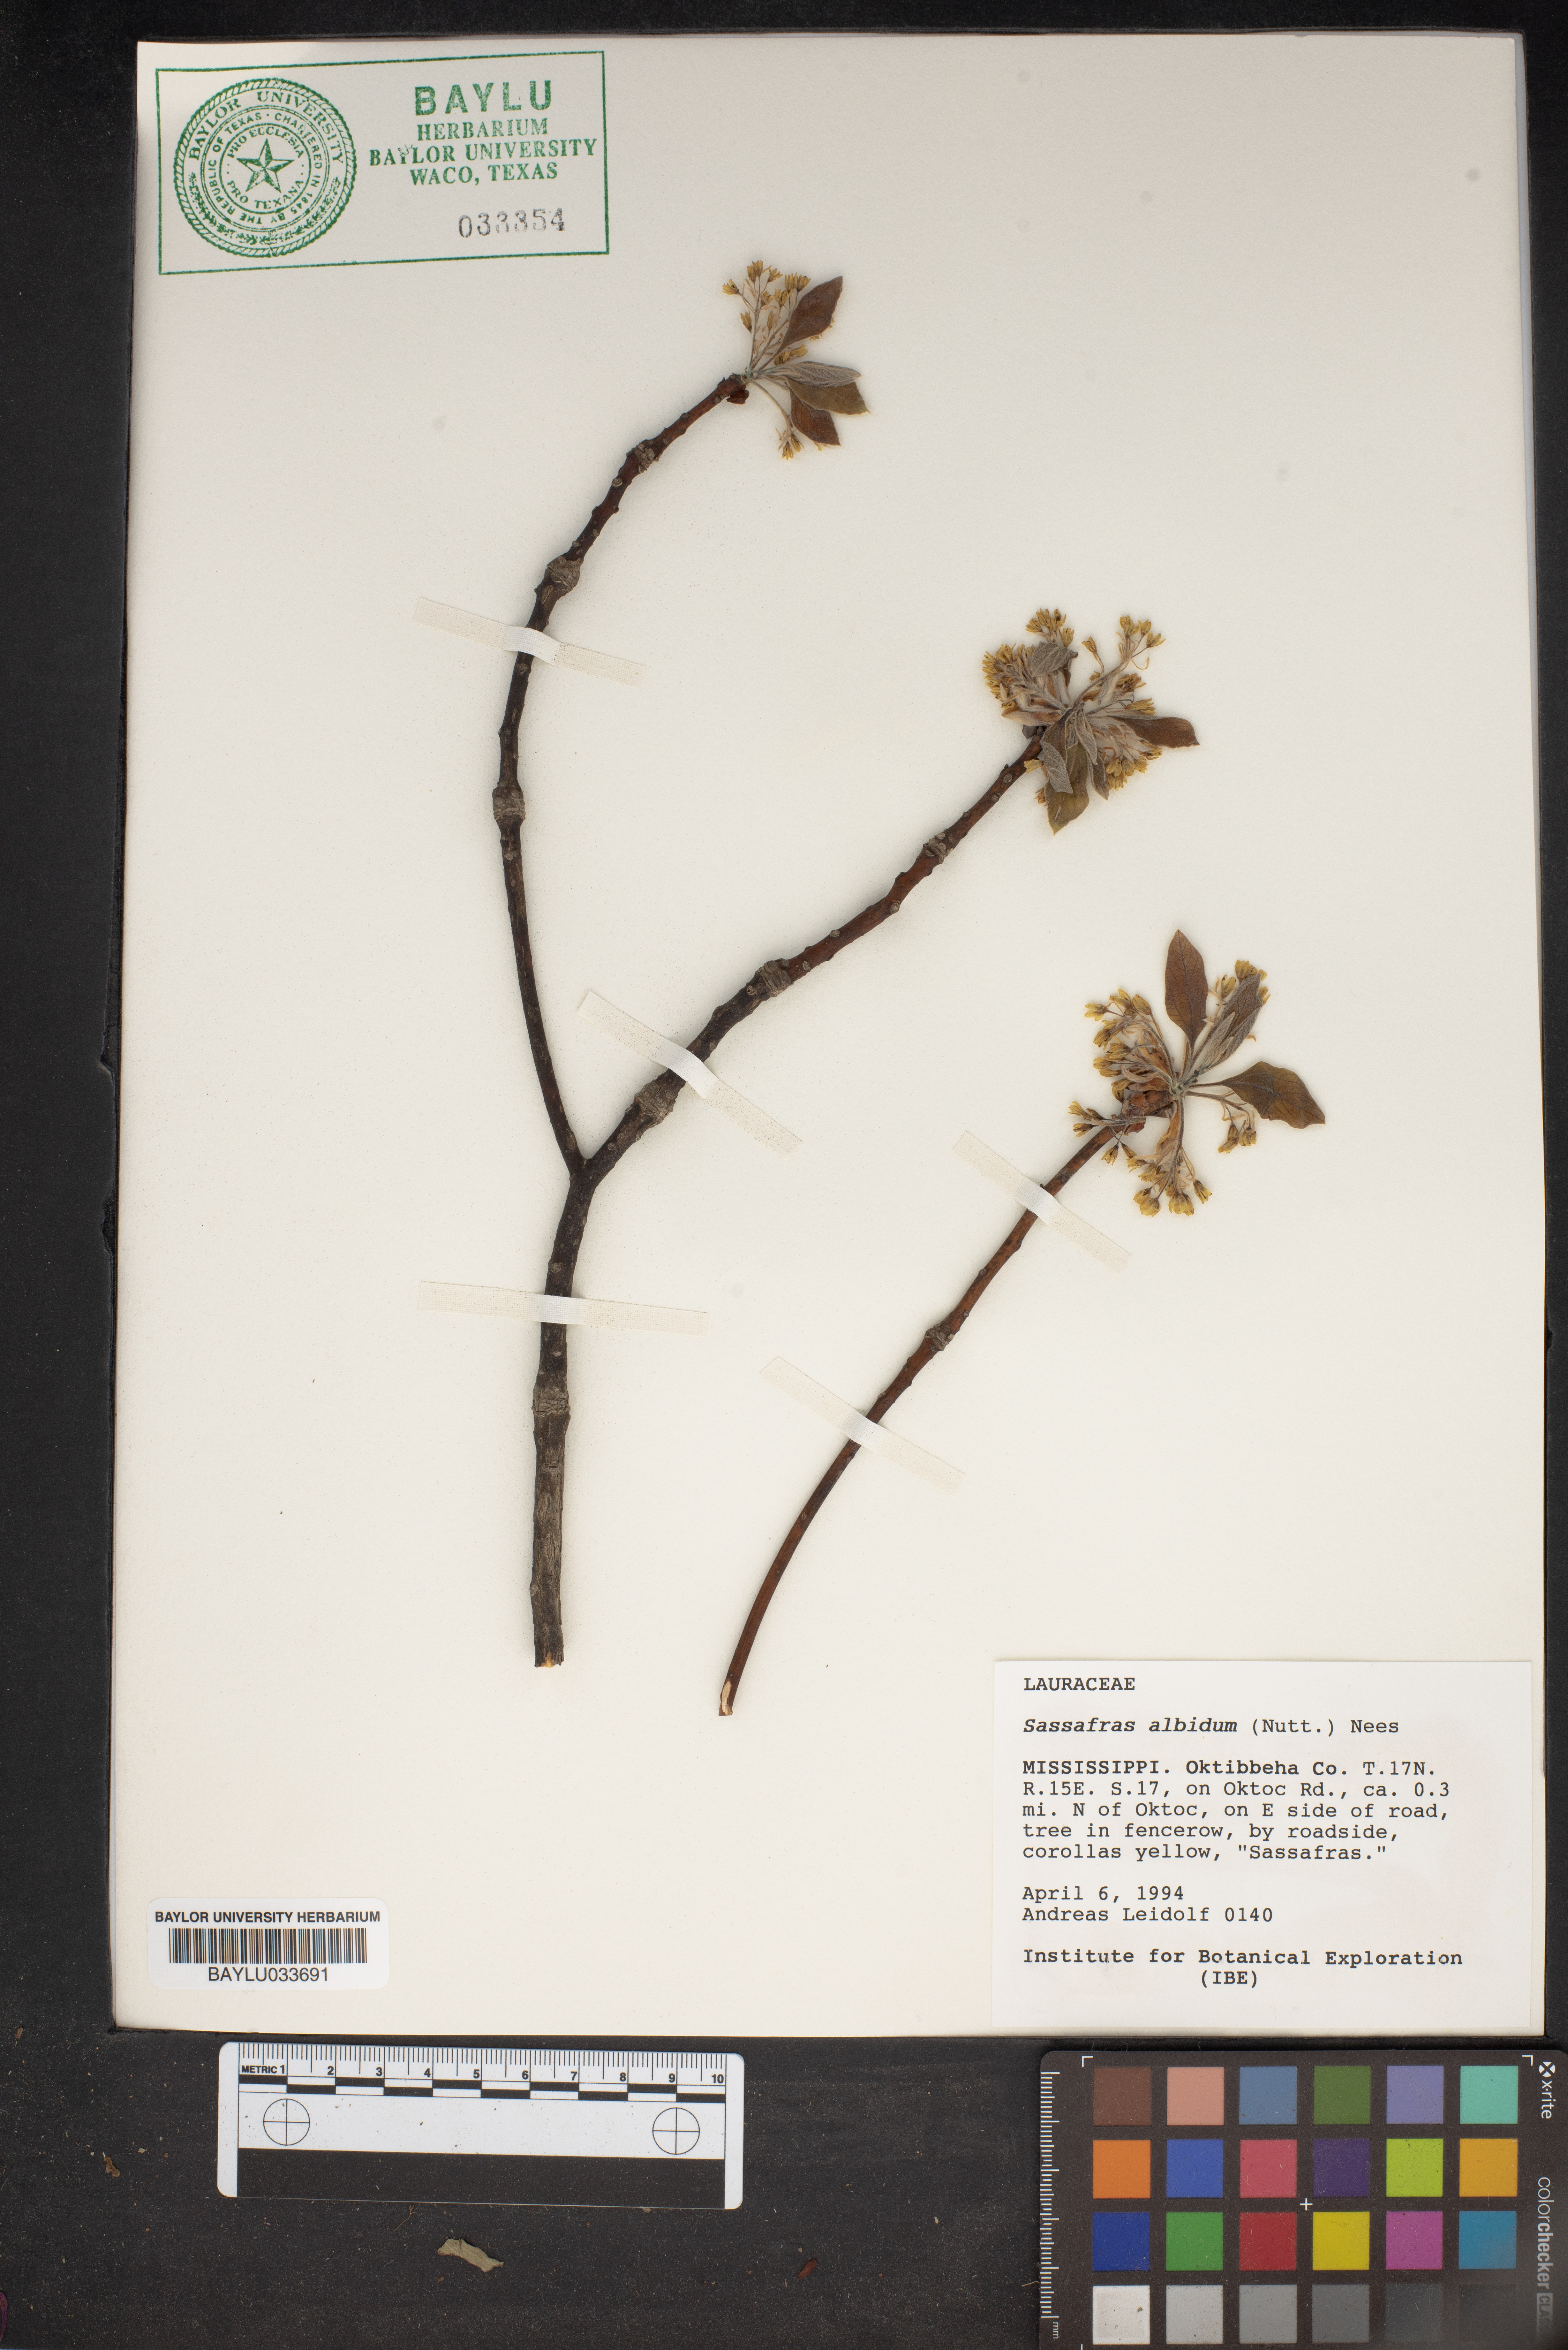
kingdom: Plantae
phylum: Tracheophyta
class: Magnoliopsida
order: Laurales
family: Lauraceae
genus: Sassafras
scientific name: Sassafras albidum
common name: Sassafras
